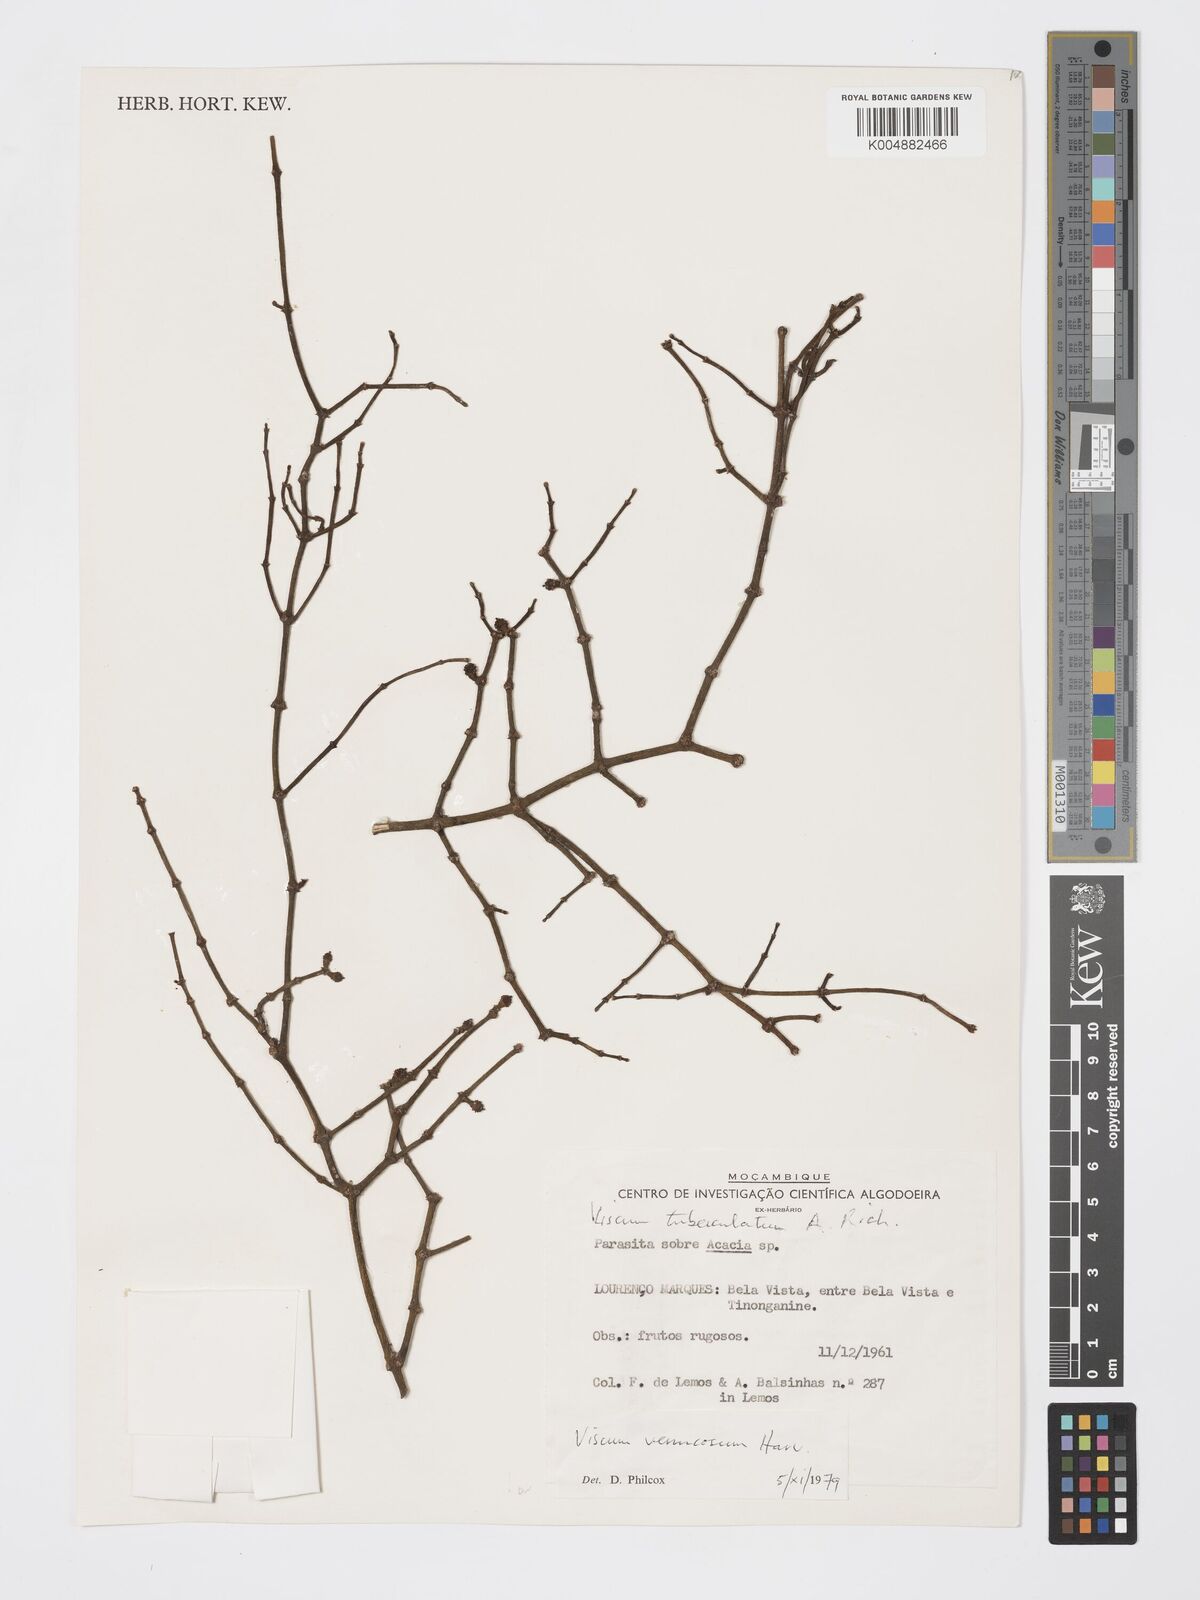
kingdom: Plantae
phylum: Tracheophyta
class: Magnoliopsida
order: Santalales
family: Viscaceae
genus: Viscum
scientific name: Viscum verrucosum
